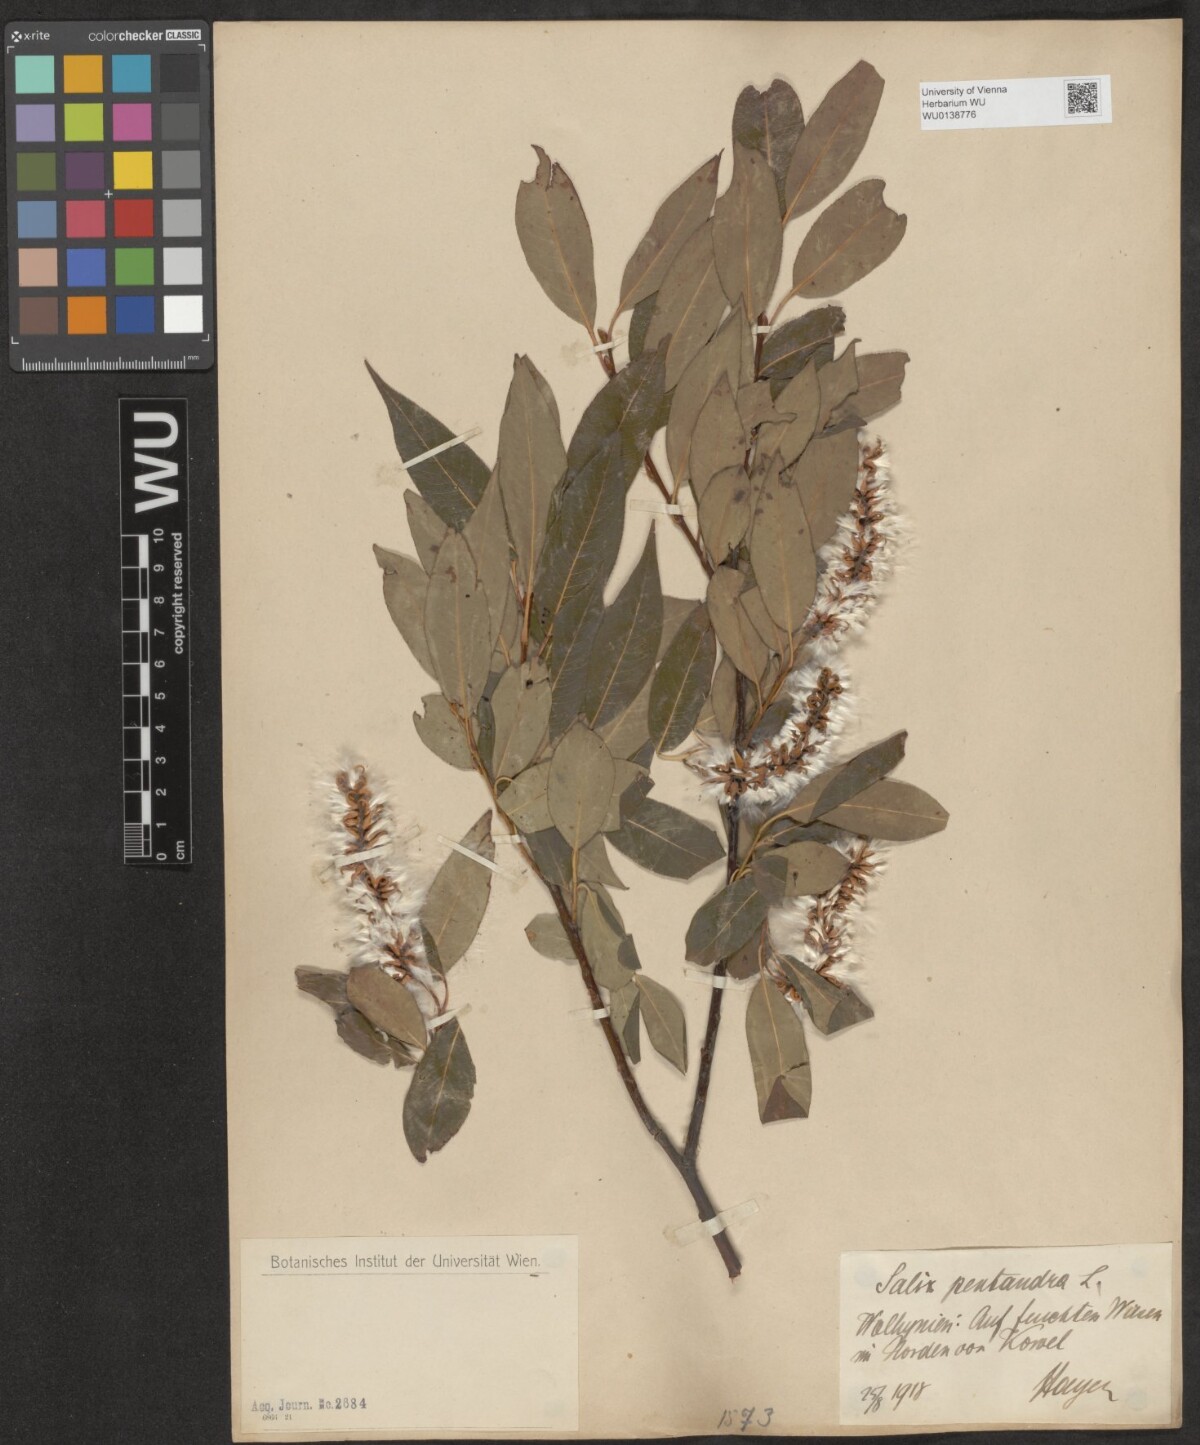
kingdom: Plantae
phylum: Tracheophyta
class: Magnoliopsida
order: Malpighiales
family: Salicaceae
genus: Salix
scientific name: Salix pentandra
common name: Bay willow
